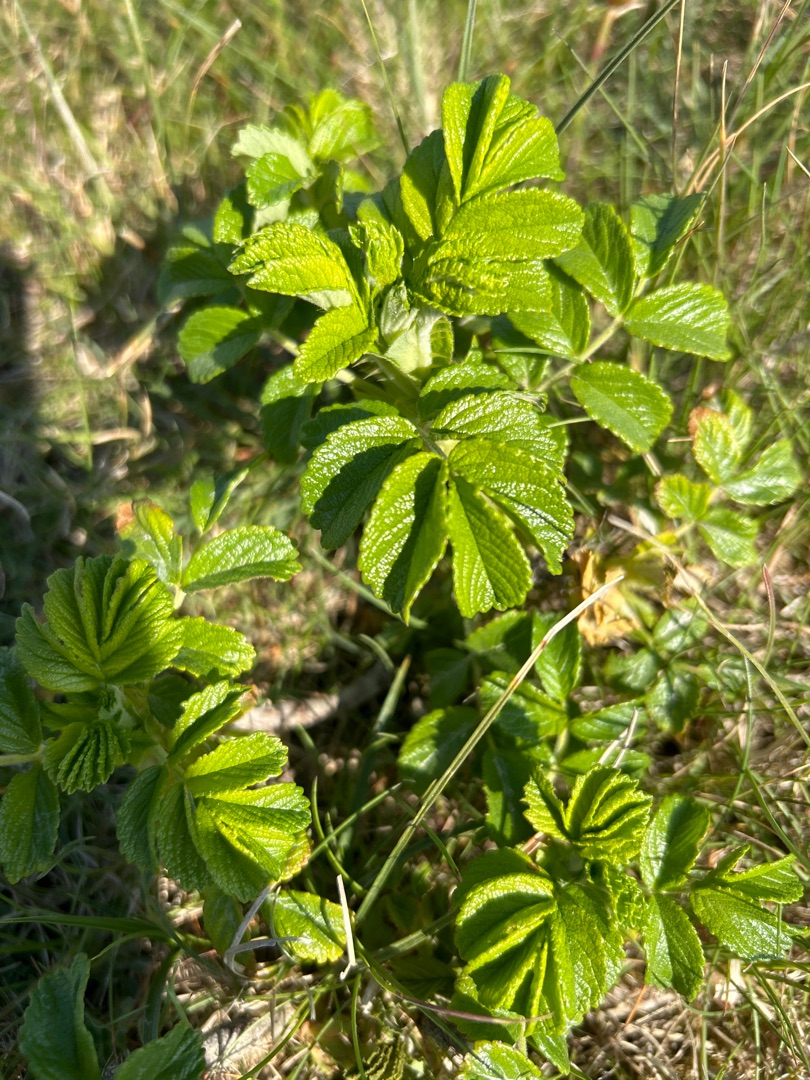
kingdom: Plantae
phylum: Tracheophyta
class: Magnoliopsida
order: Rosales
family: Rosaceae
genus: Rosa
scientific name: Rosa rugosa
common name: Rynket rose
